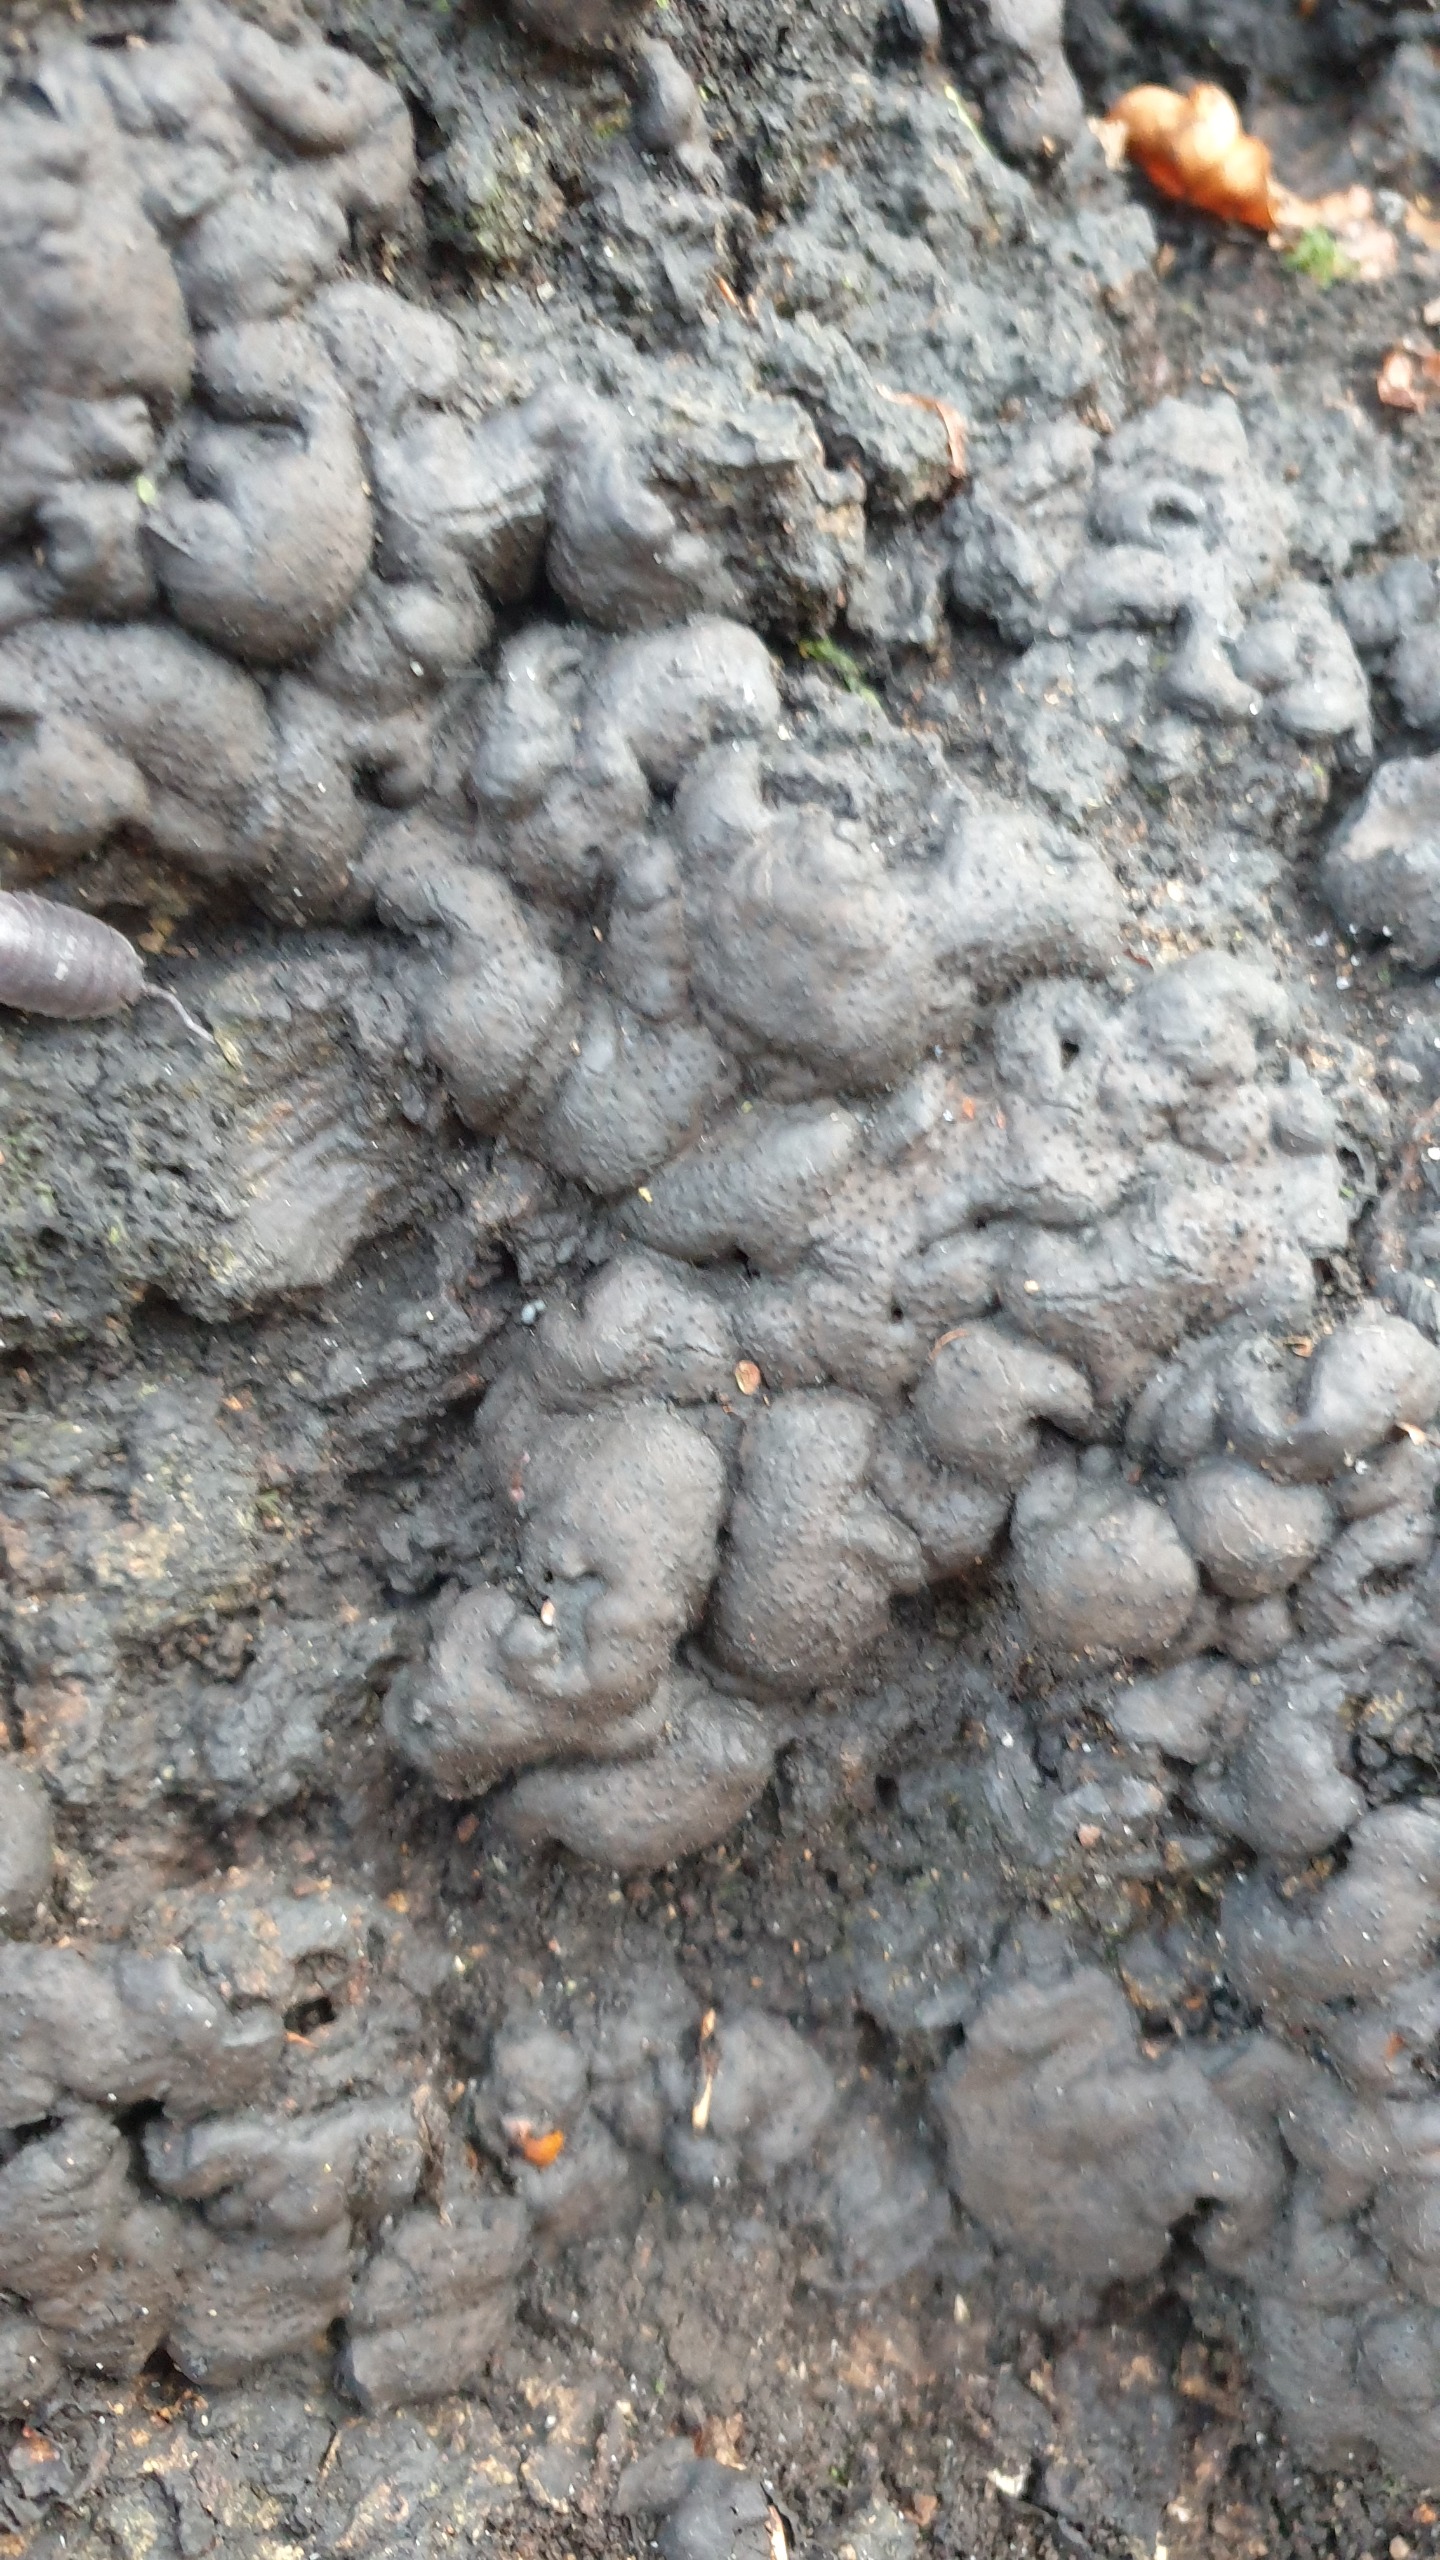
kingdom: Fungi
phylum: Ascomycota
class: Sordariomycetes
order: Xylariales
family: Xylariaceae
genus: Kretzschmaria
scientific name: Kretzschmaria deusta
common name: Stor kulsvamp
